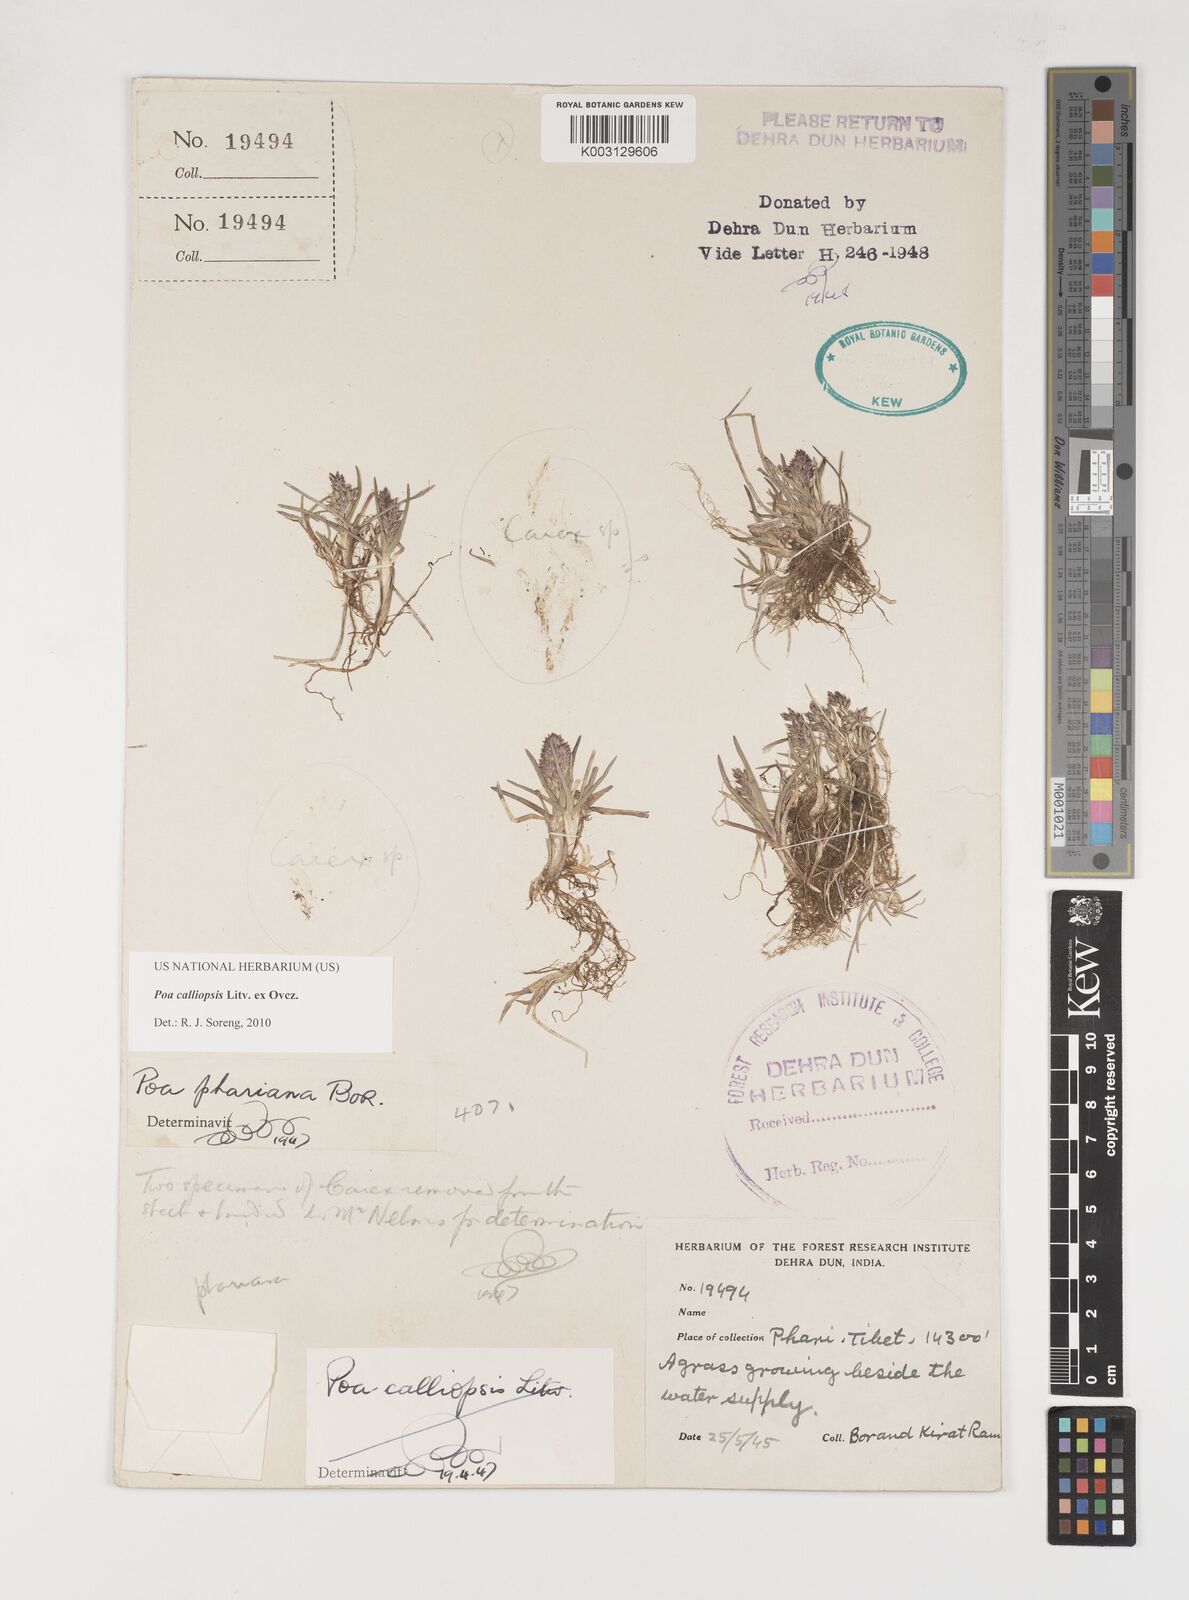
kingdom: Plantae
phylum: Tracheophyta
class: Liliopsida
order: Poales
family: Poaceae
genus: Poa
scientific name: Poa calliopsis
